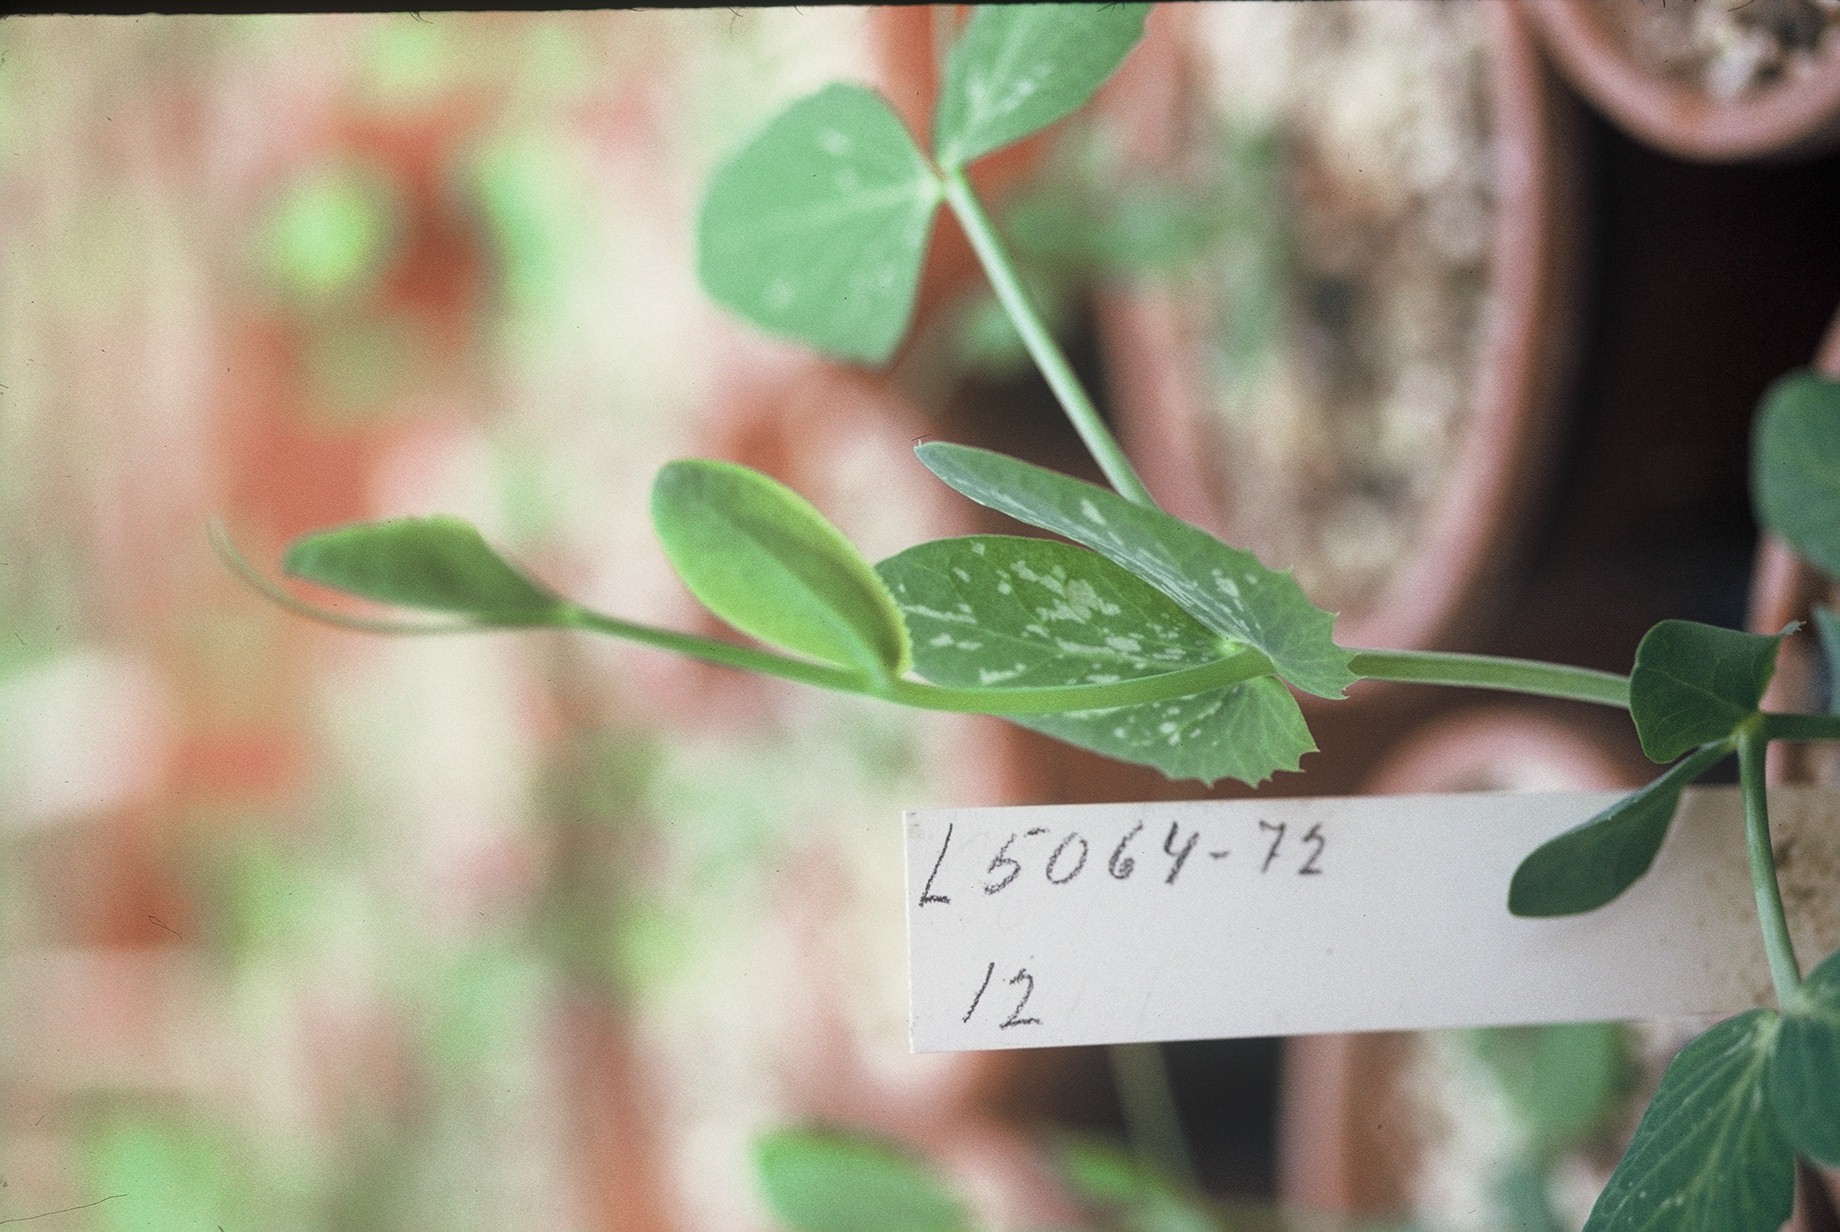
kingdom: Plantae
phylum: Tracheophyta
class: Magnoliopsida
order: Fabales
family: Fabaceae
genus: Lathyrus
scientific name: Lathyrus oleraceus
